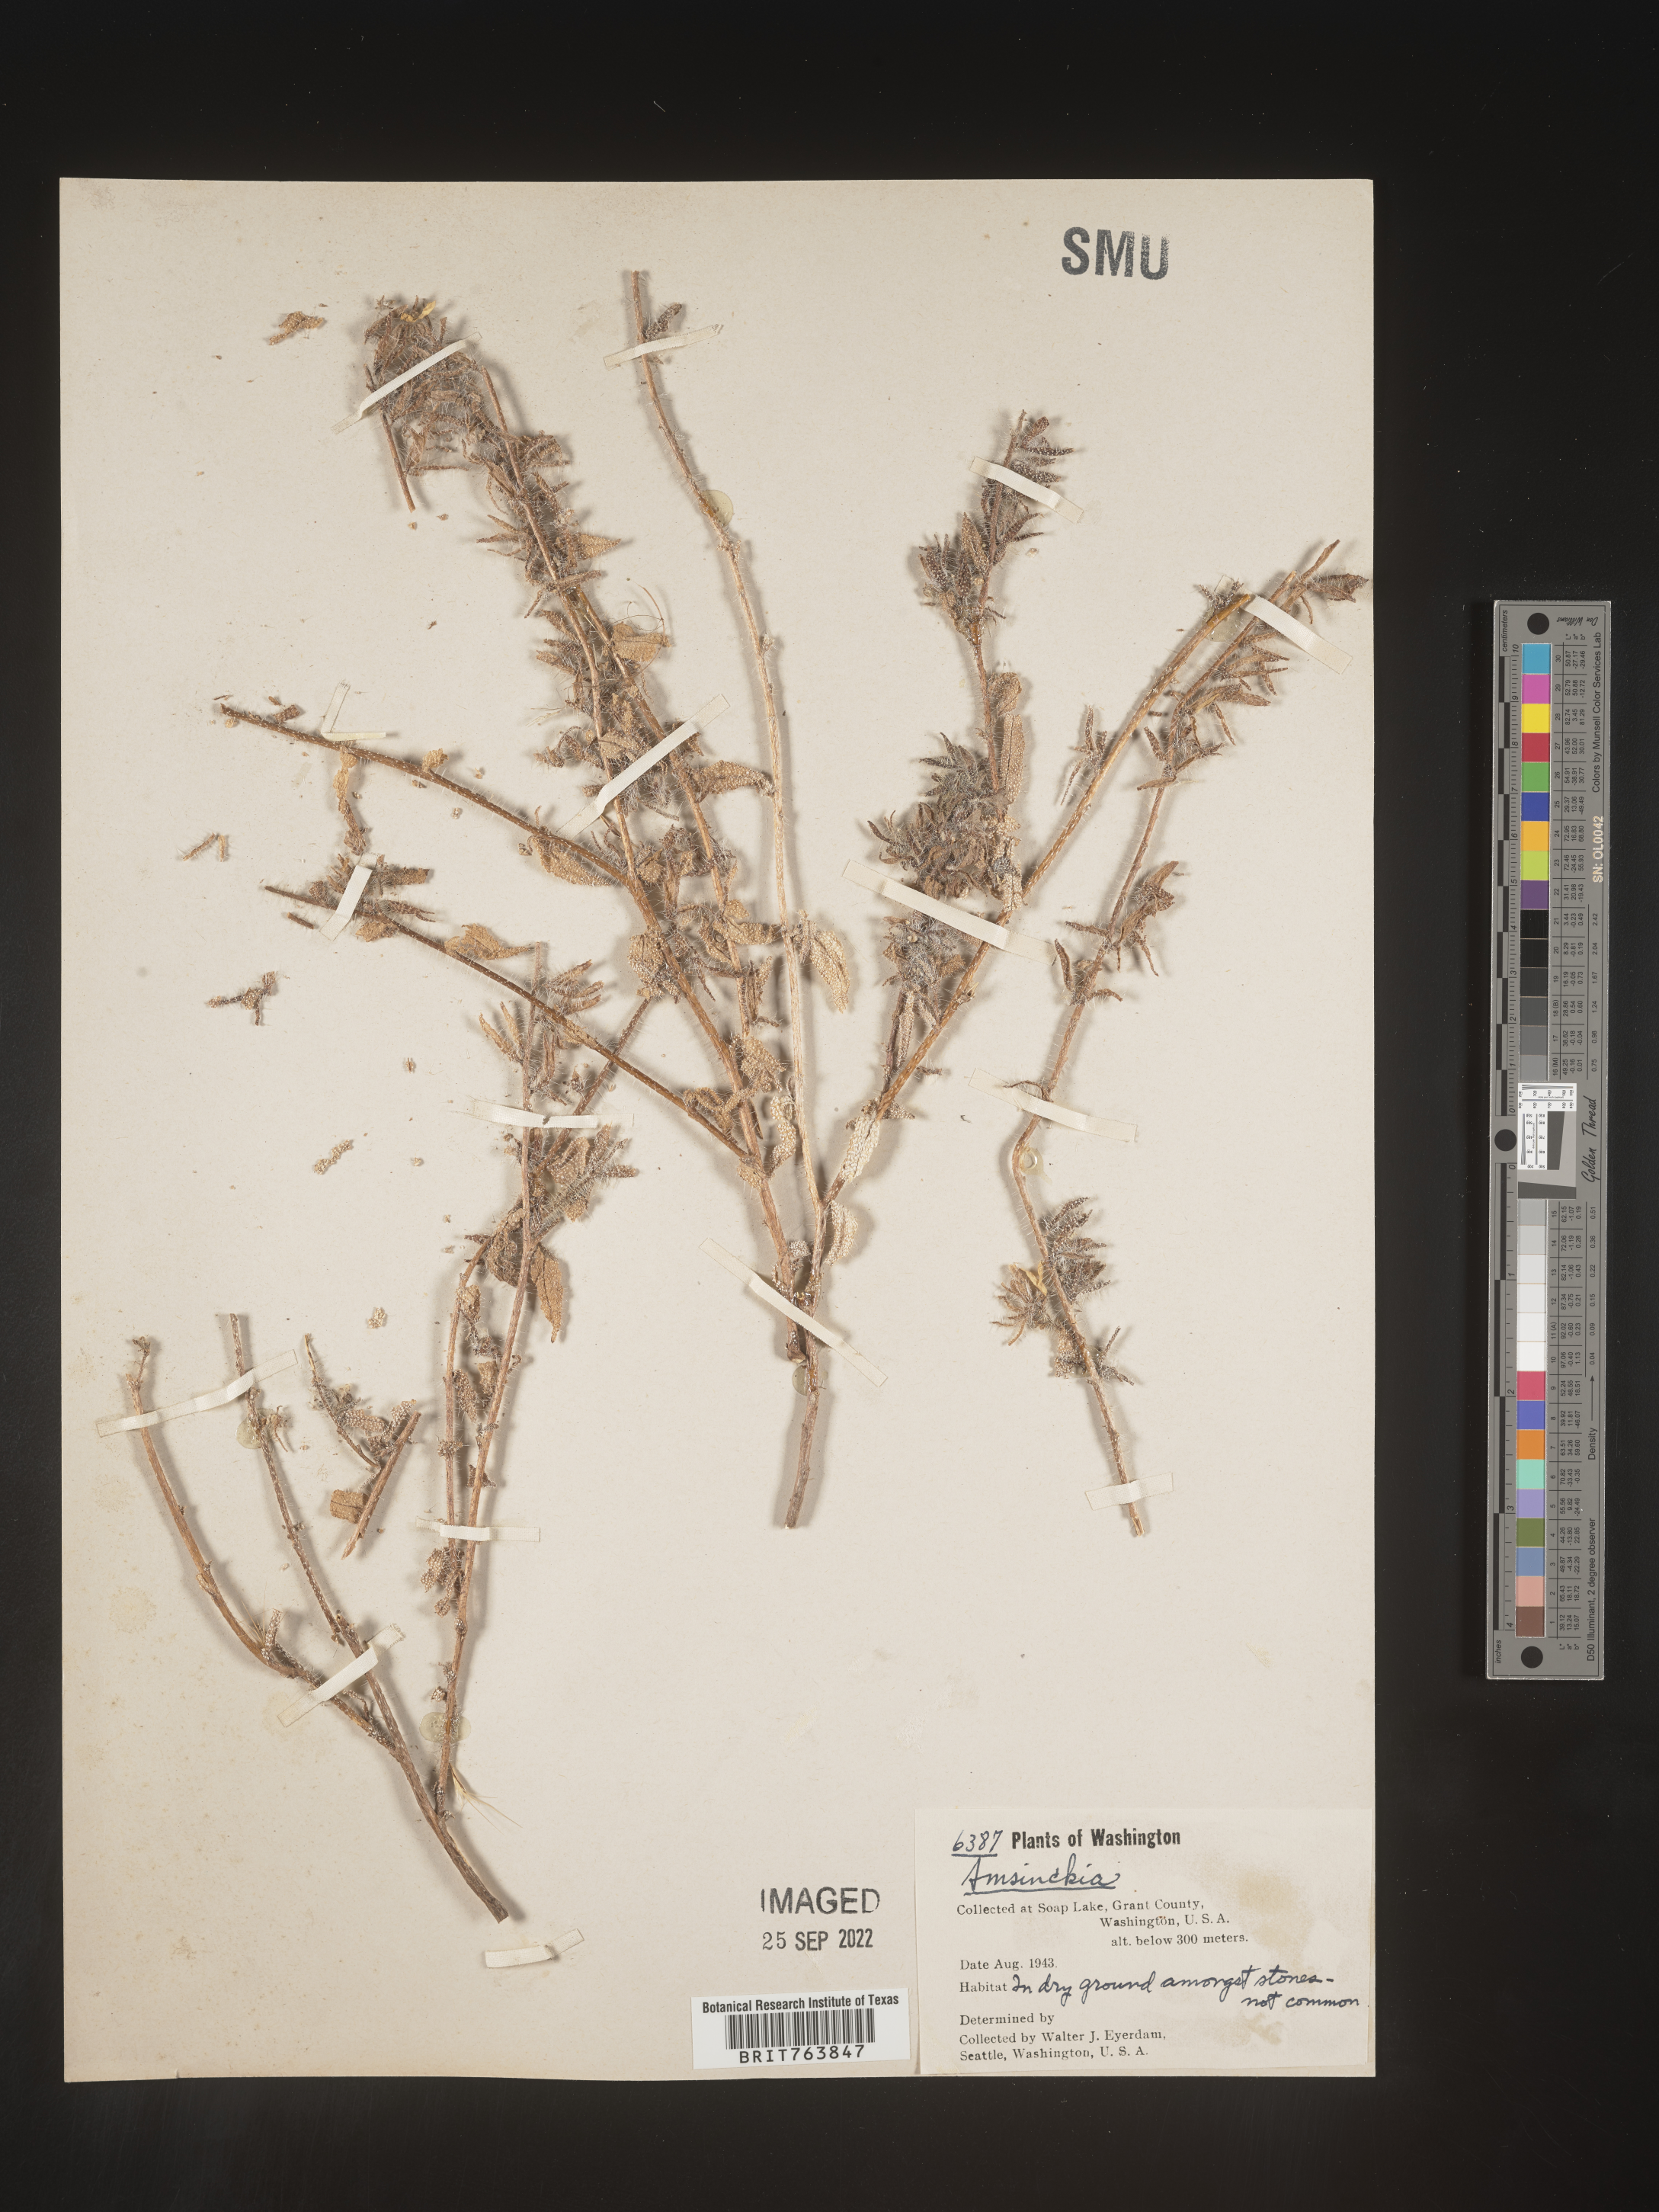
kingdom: Plantae
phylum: Tracheophyta
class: Magnoliopsida
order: Boraginales
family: Boraginaceae
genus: Amsinckia
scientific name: Amsinckia
